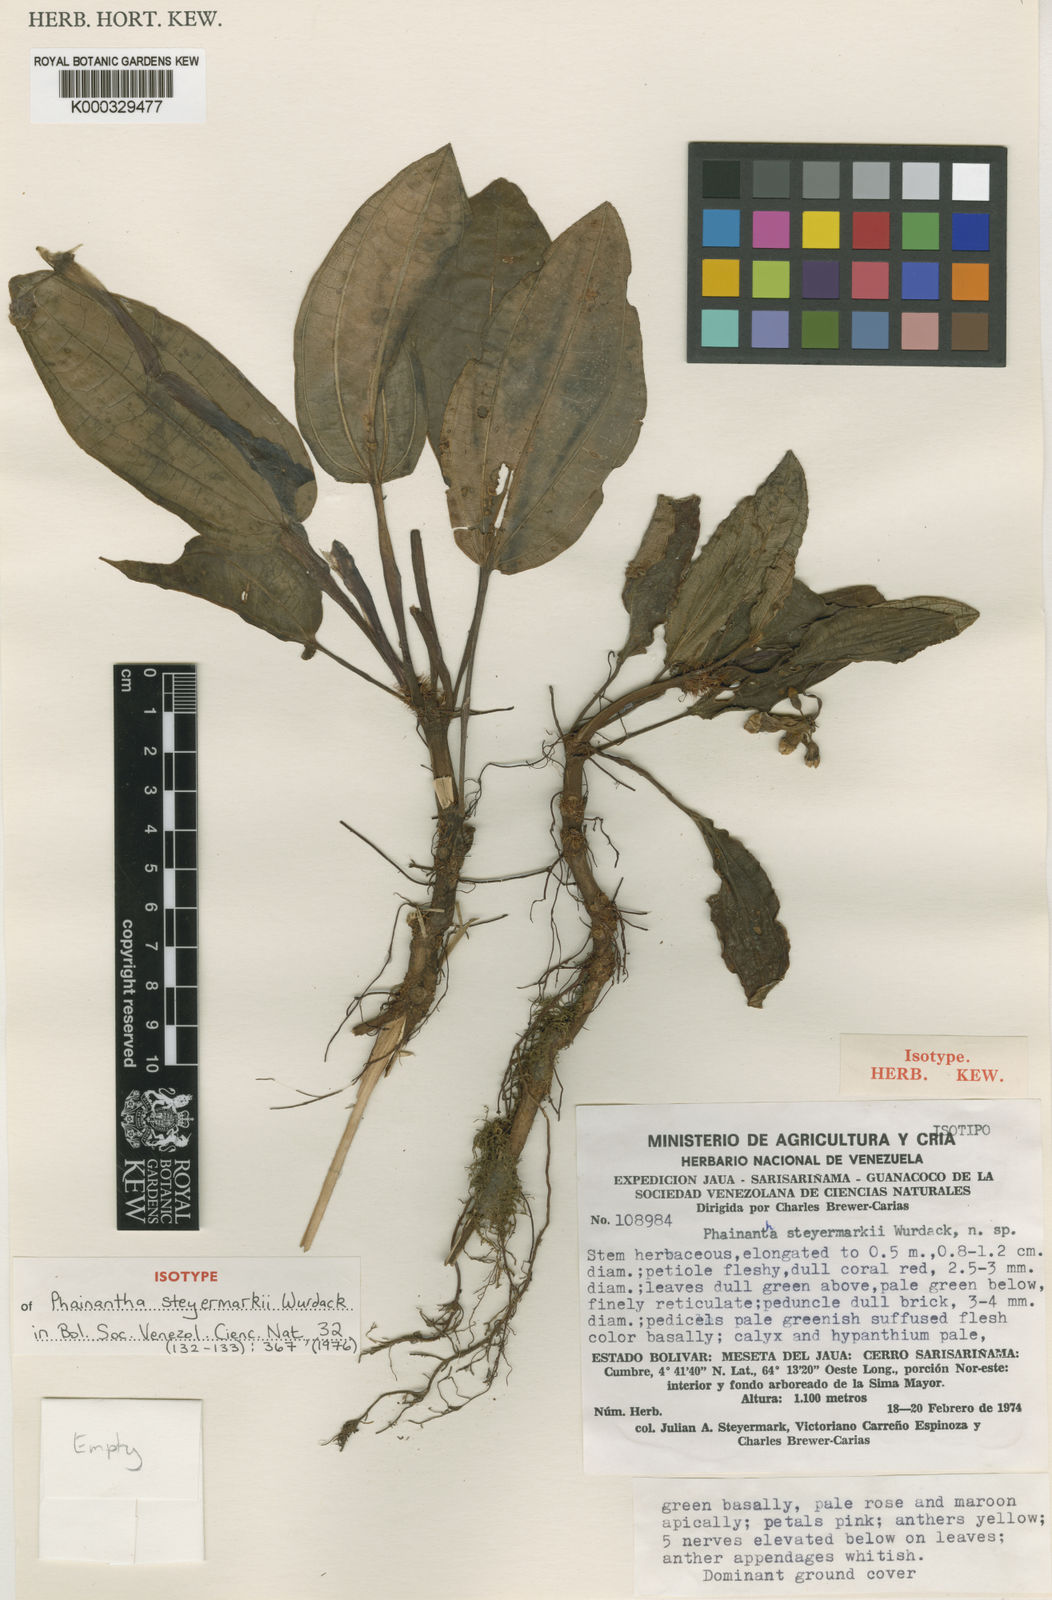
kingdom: Plantae
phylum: Tracheophyta
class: Magnoliopsida
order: Myrtales
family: Melastomataceae
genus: Phainantha
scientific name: Phainantha steyermarkii
